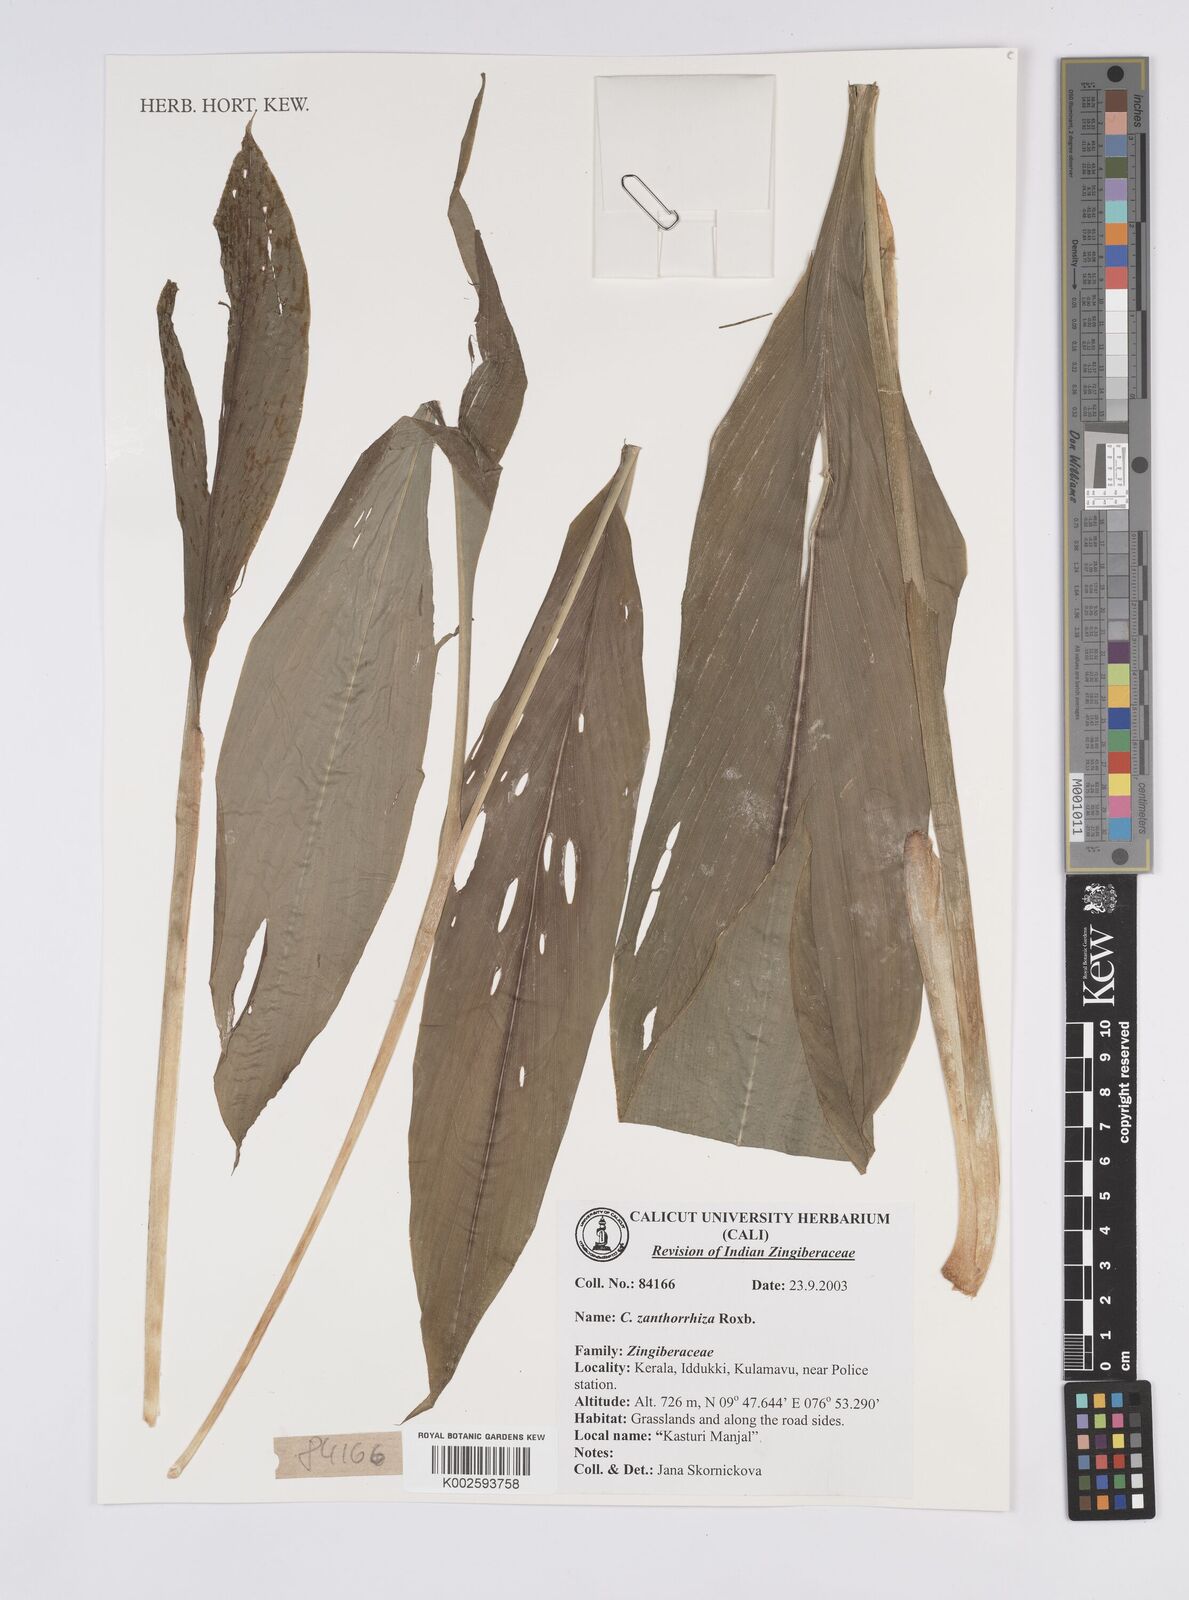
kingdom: Plantae
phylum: Tracheophyta
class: Liliopsida
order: Zingiberales
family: Zingiberaceae
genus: Curcuma
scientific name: Curcuma zanthorrhiza
